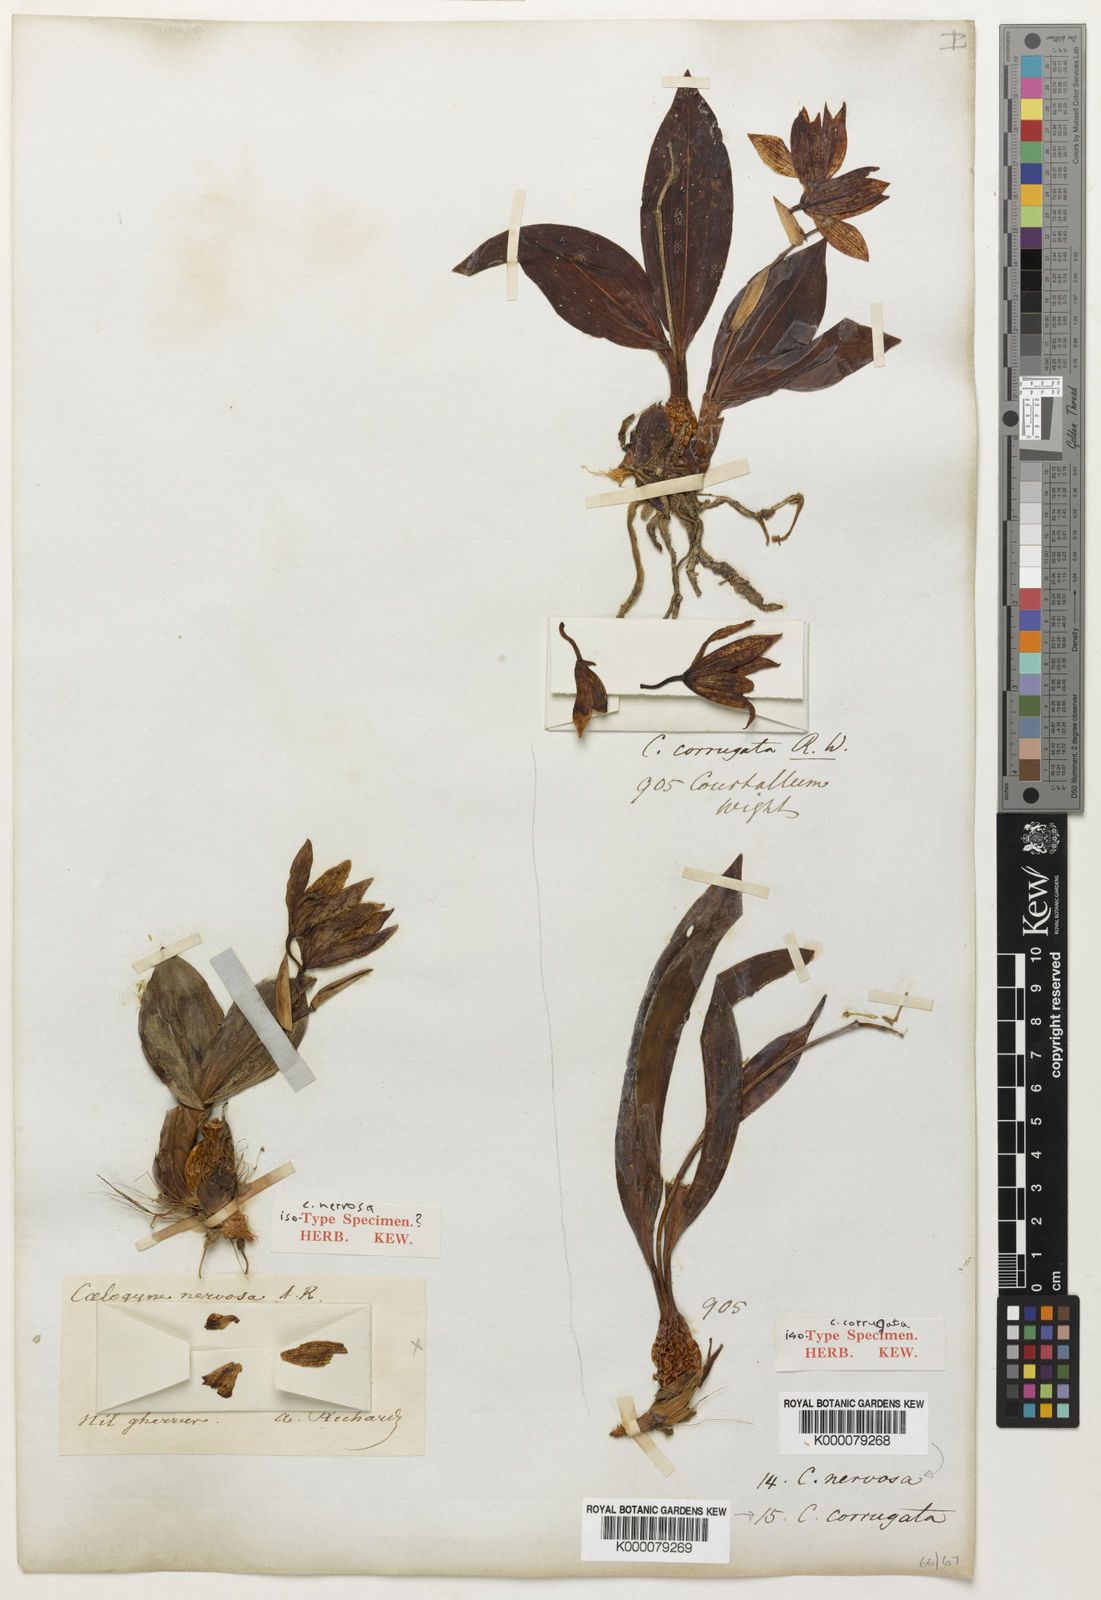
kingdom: Plantae
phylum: Tracheophyta
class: Liliopsida
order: Asparagales
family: Orchidaceae
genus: Coelogyne
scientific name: Coelogyne nervosa
